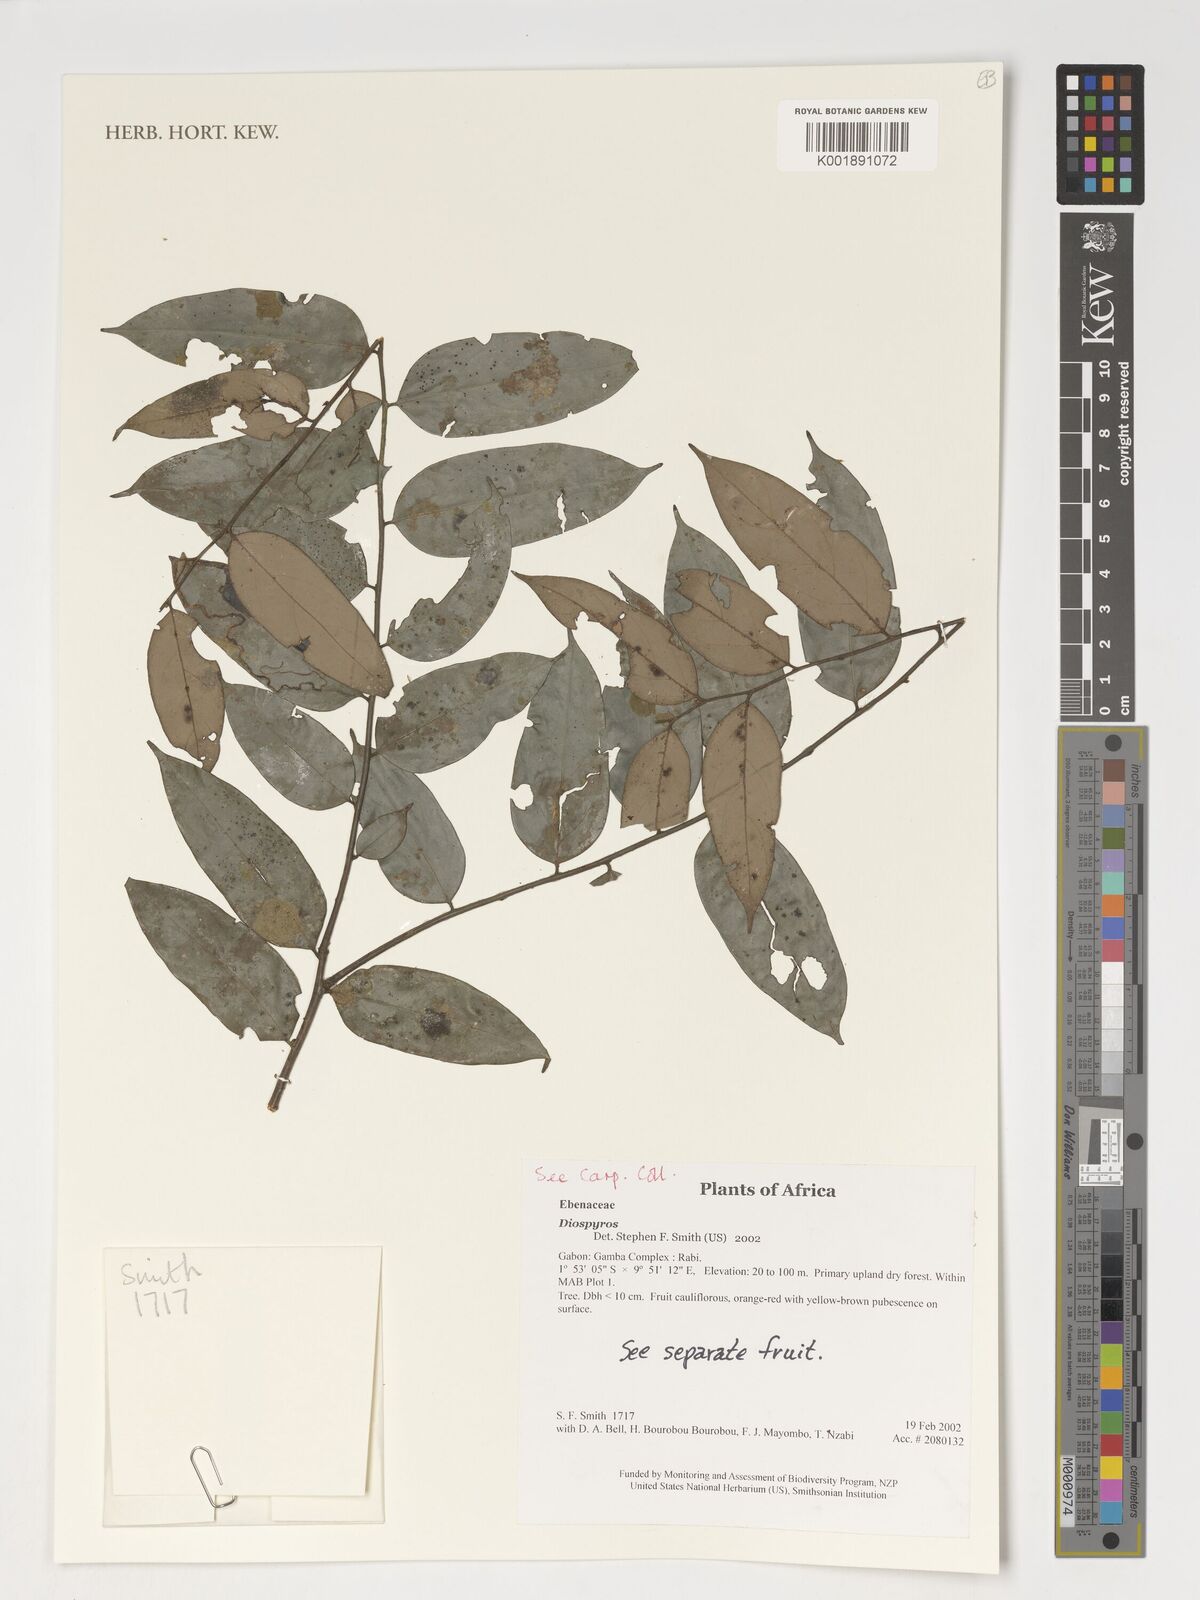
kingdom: Plantae
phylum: Tracheophyta
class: Magnoliopsida
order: Ericales
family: Ebenaceae
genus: Diospyros
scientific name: Diospyros
